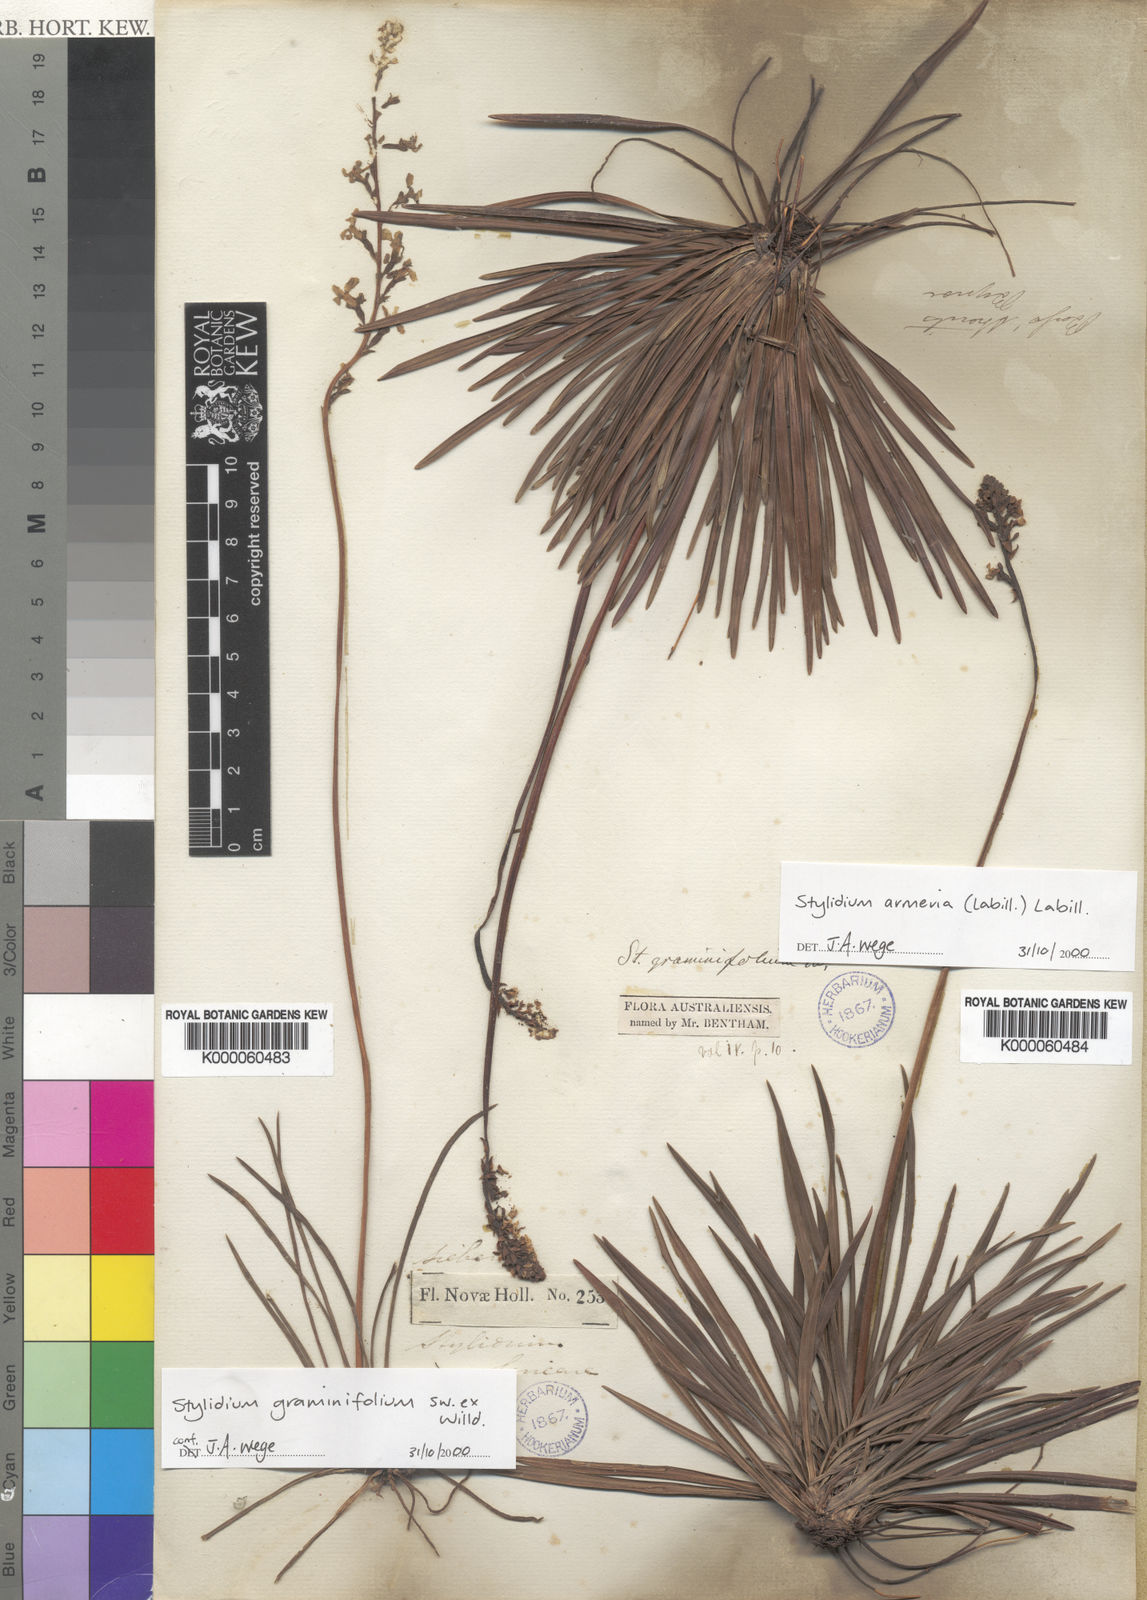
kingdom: Plantae
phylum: Tracheophyta
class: Magnoliopsida
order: Asterales
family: Stylidiaceae
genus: Stylidium
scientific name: Stylidium armeria
